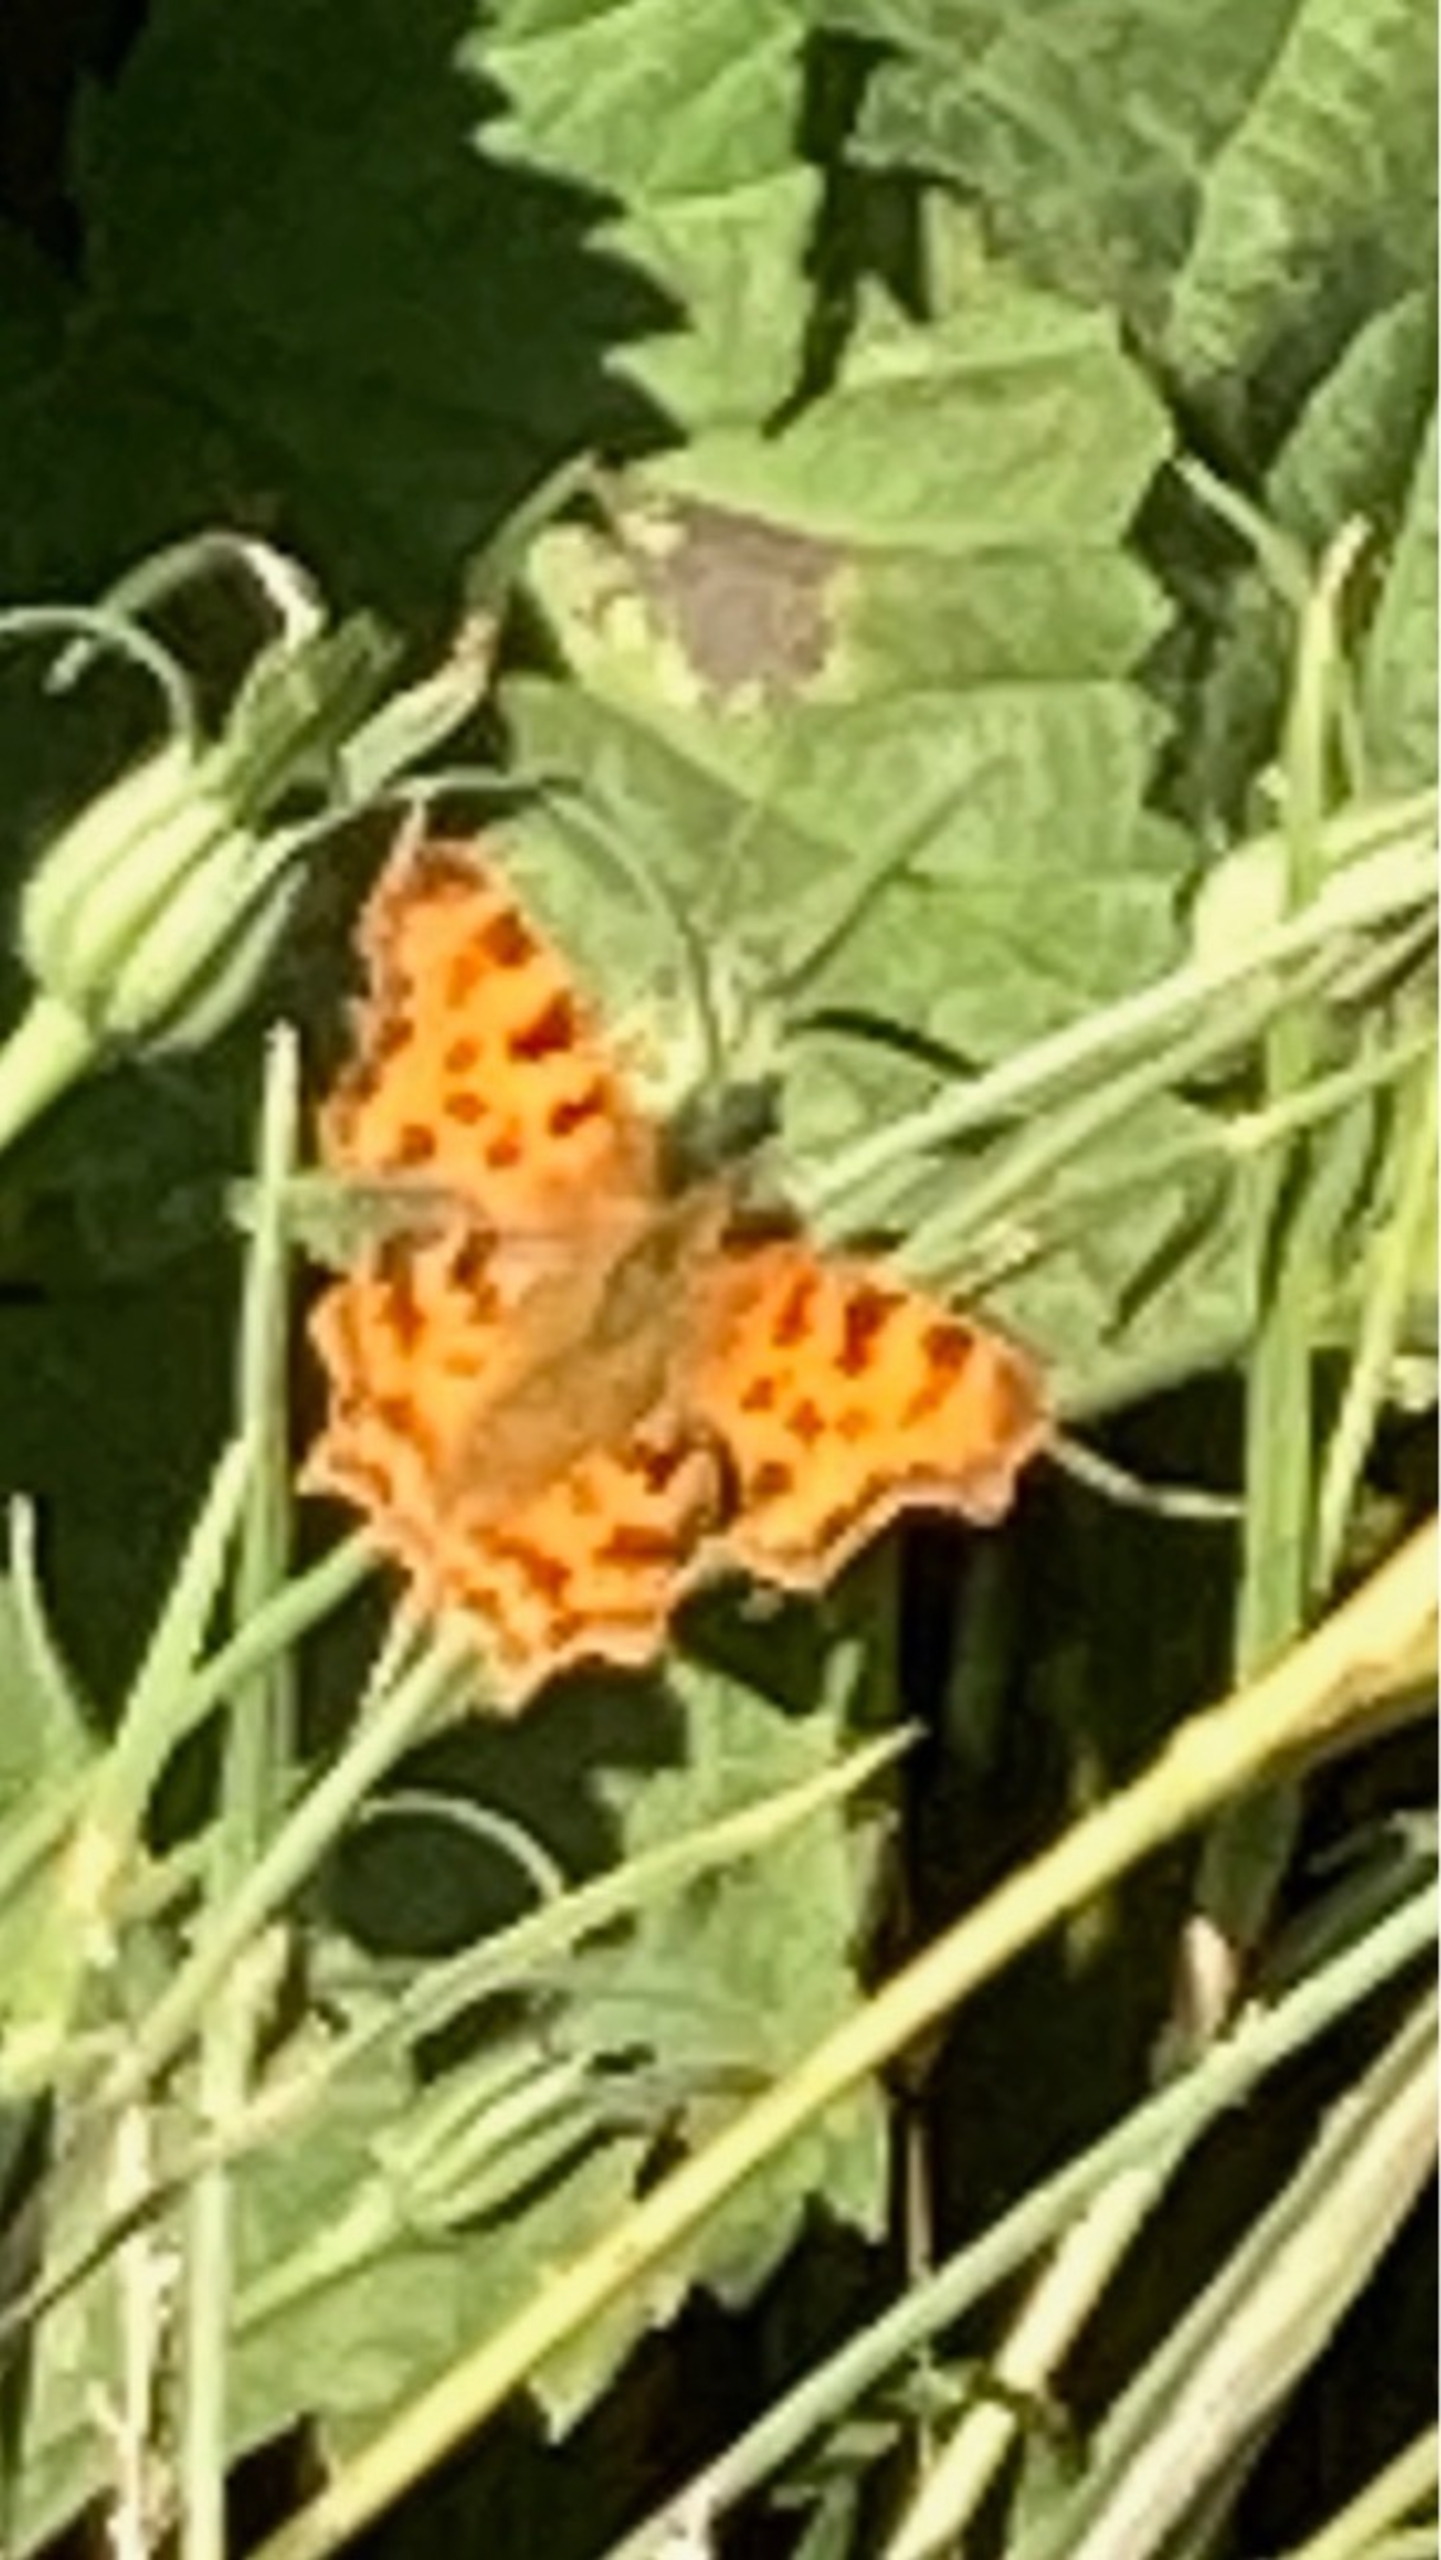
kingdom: Animalia
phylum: Arthropoda
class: Insecta
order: Lepidoptera
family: Nymphalidae
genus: Polygonia
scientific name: Polygonia c-album
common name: Det hvide C
